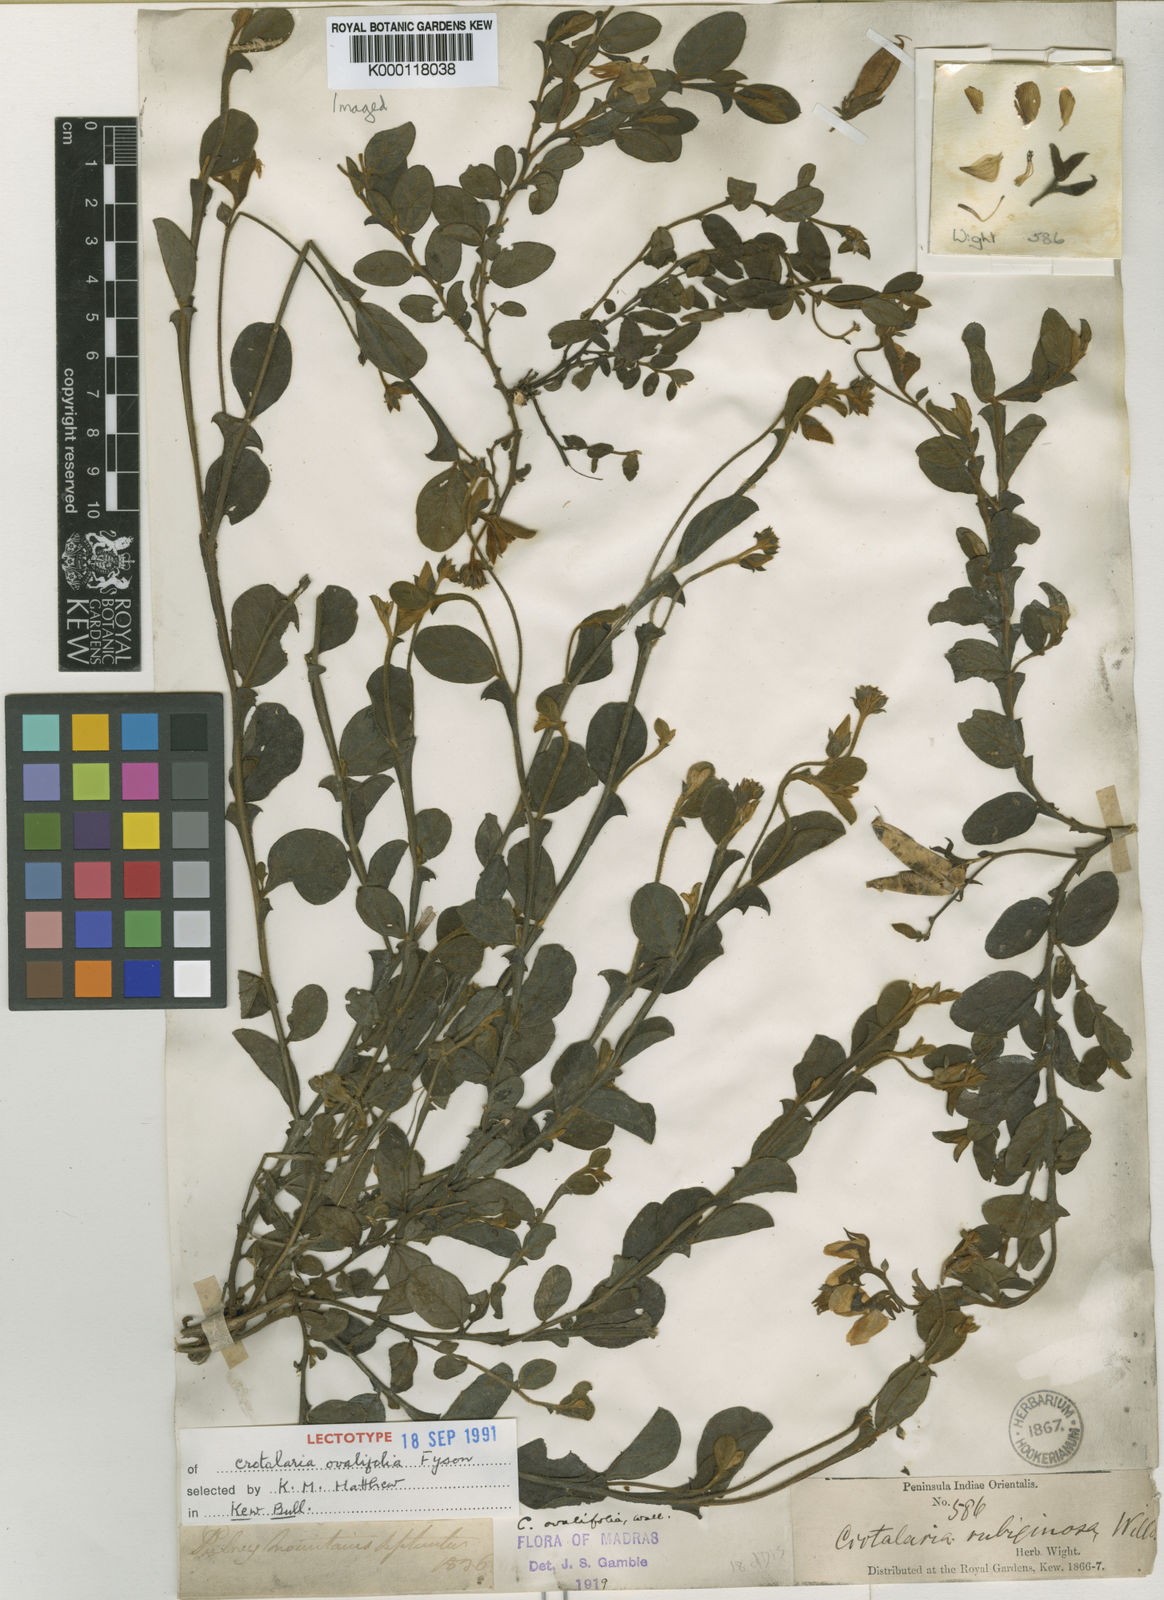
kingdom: Plantae
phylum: Tracheophyta
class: Magnoliopsida
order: Fabales
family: Fabaceae
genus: Crotalaria
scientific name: Crotalaria scabrella
